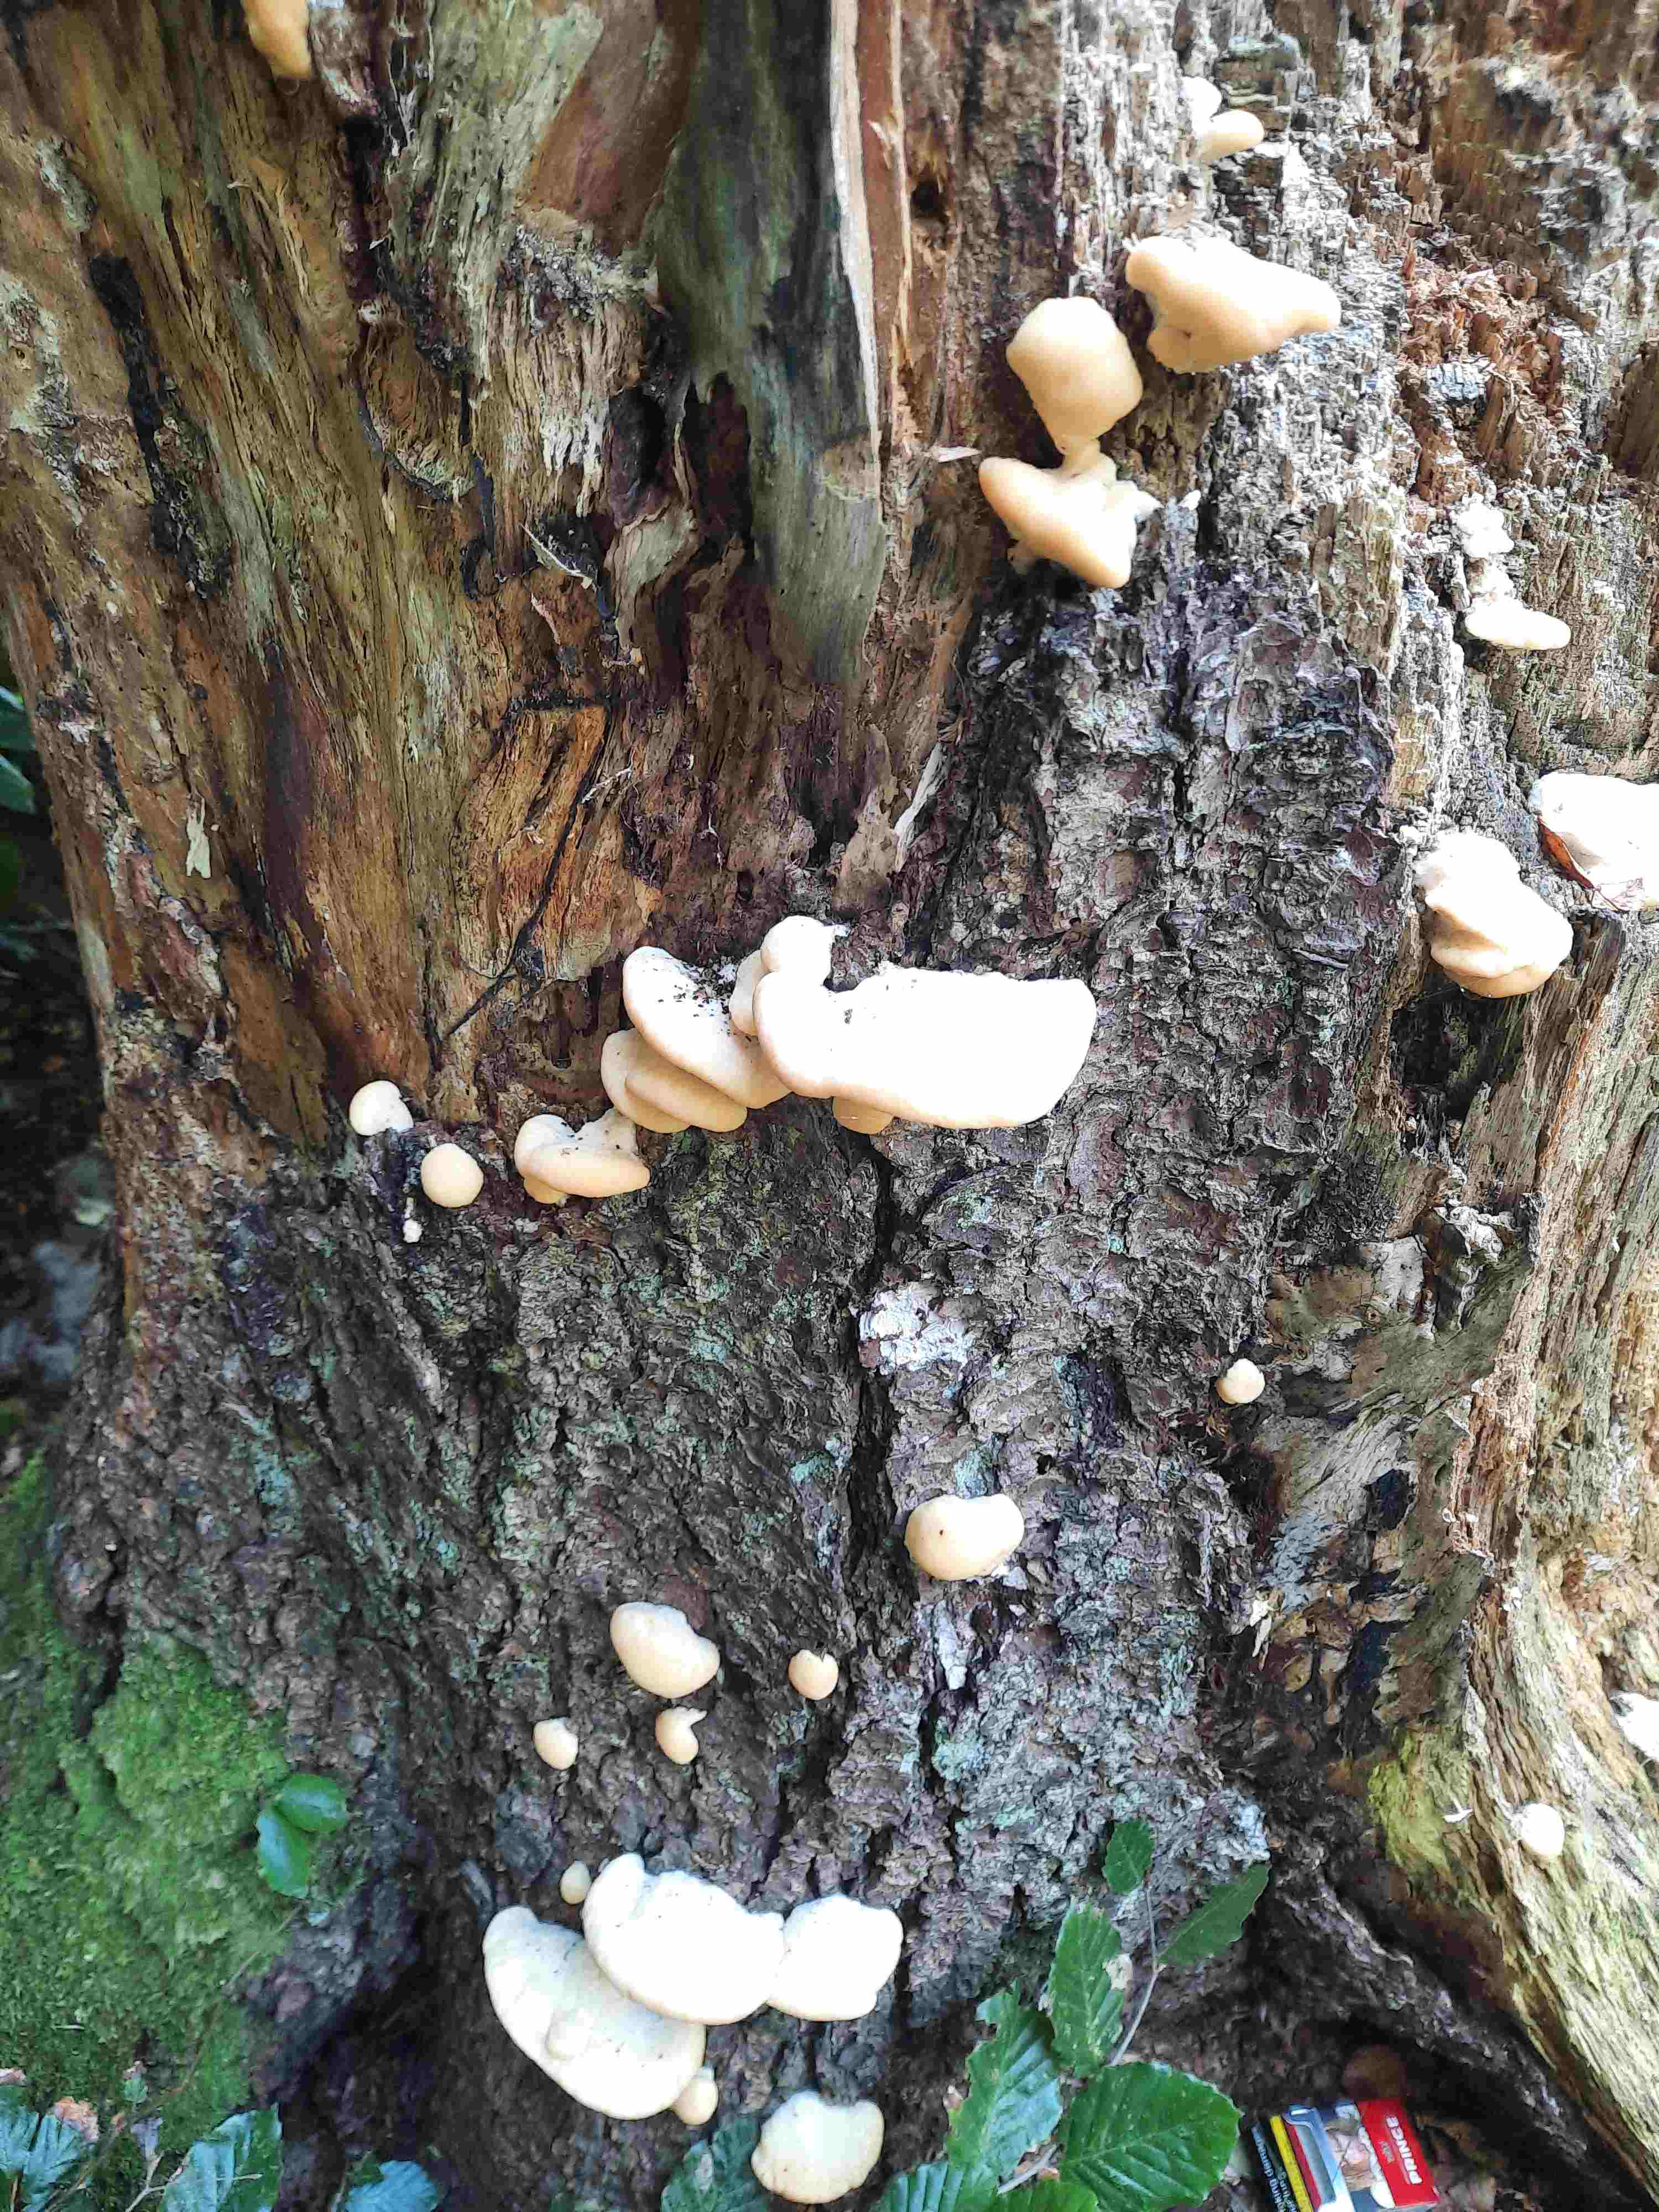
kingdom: Fungi
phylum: Basidiomycota
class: Agaricomycetes
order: Polyporales
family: Fomitopsidaceae
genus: Climacocystis
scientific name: Climacocystis borealis
